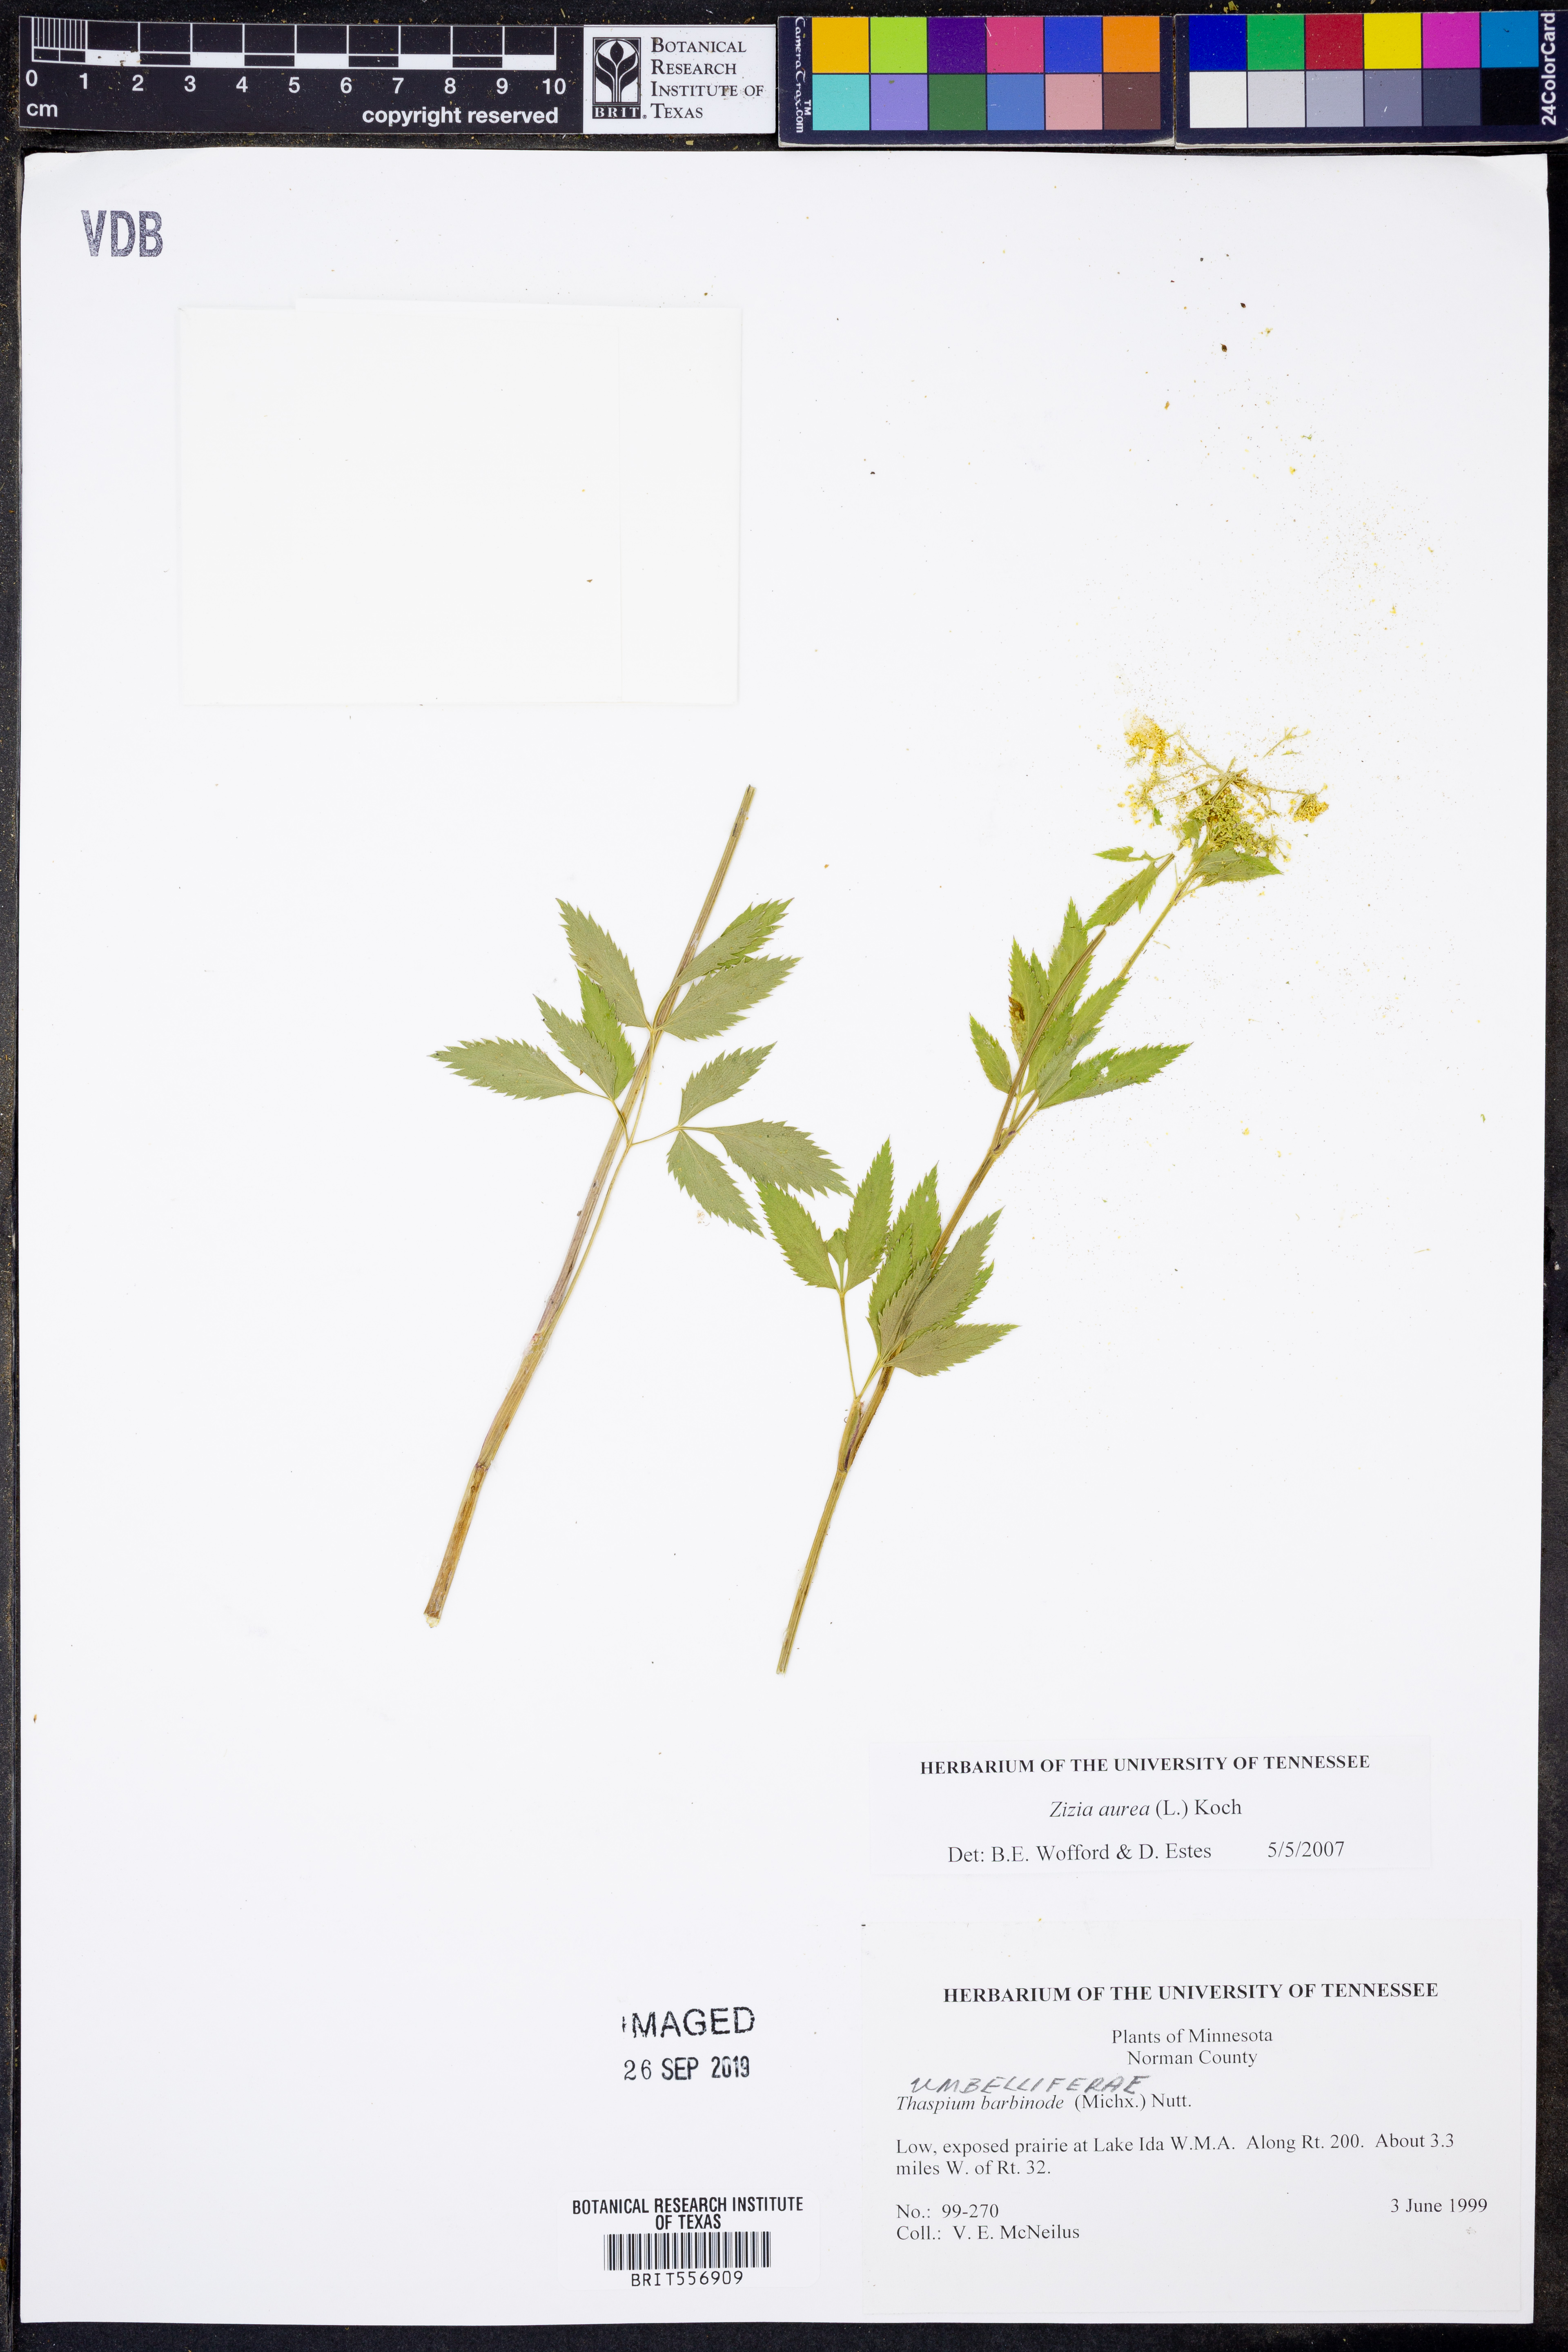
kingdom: Plantae
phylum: Tracheophyta
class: Magnoliopsida
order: Apiales
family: Apiaceae
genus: Zizia
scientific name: Zizia aurea
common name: Golden alexanders
